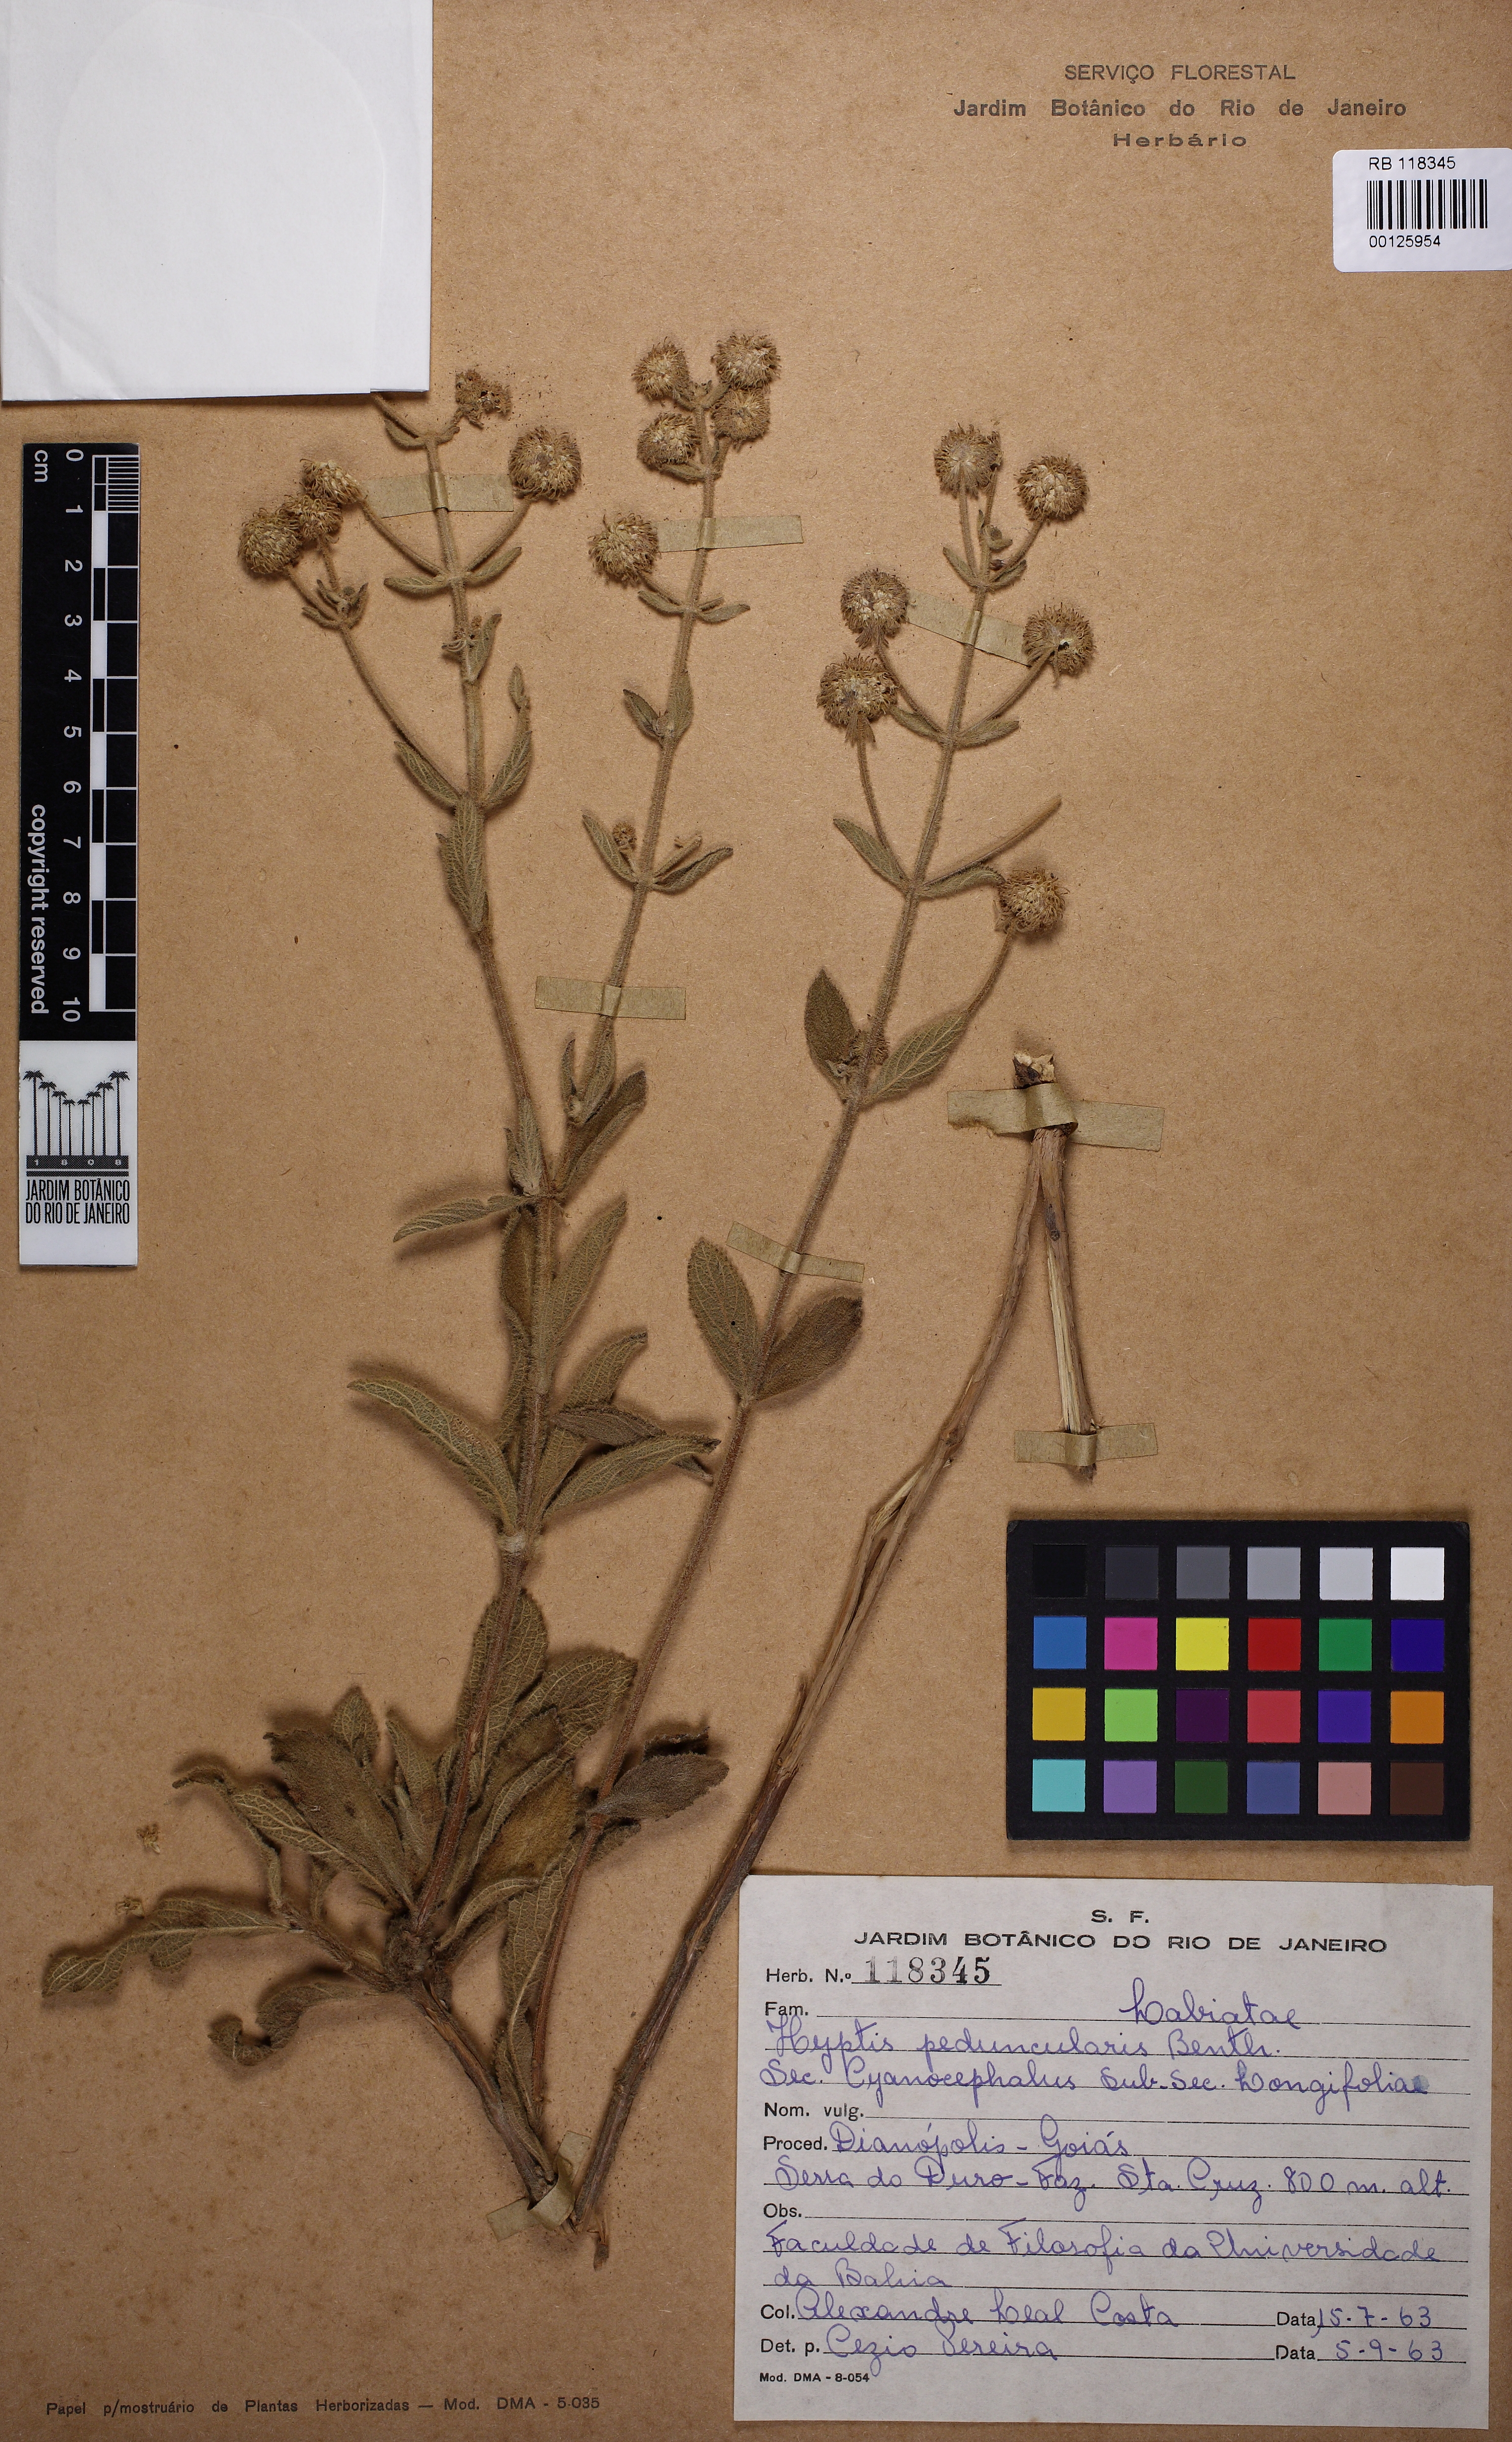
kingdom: Plantae
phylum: Tracheophyta
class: Magnoliopsida
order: Lamiales
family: Lamiaceae
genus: Cyanocephalus
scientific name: Cyanocephalus desertorum
